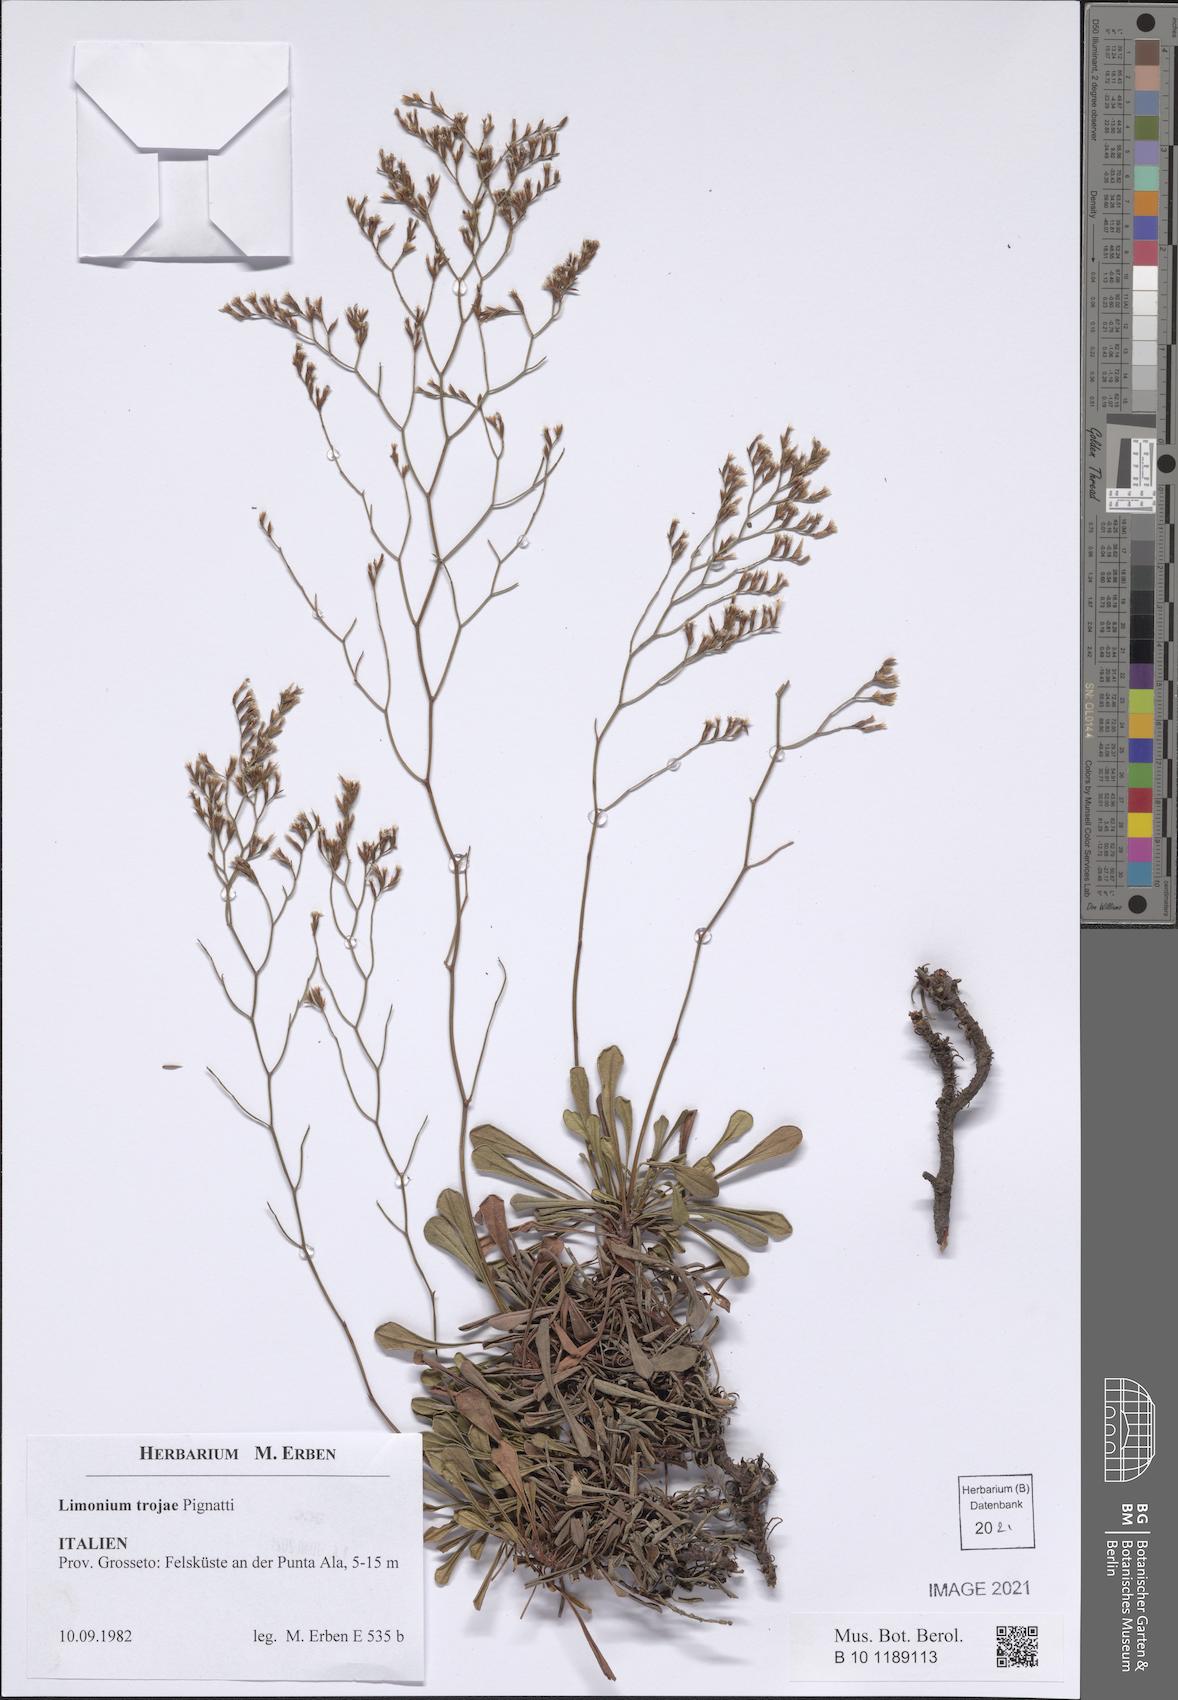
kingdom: Plantae
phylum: Tracheophyta
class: Magnoliopsida
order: Caryophyllales
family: Plumbaginaceae
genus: Limonium
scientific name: Limonium multiforme
